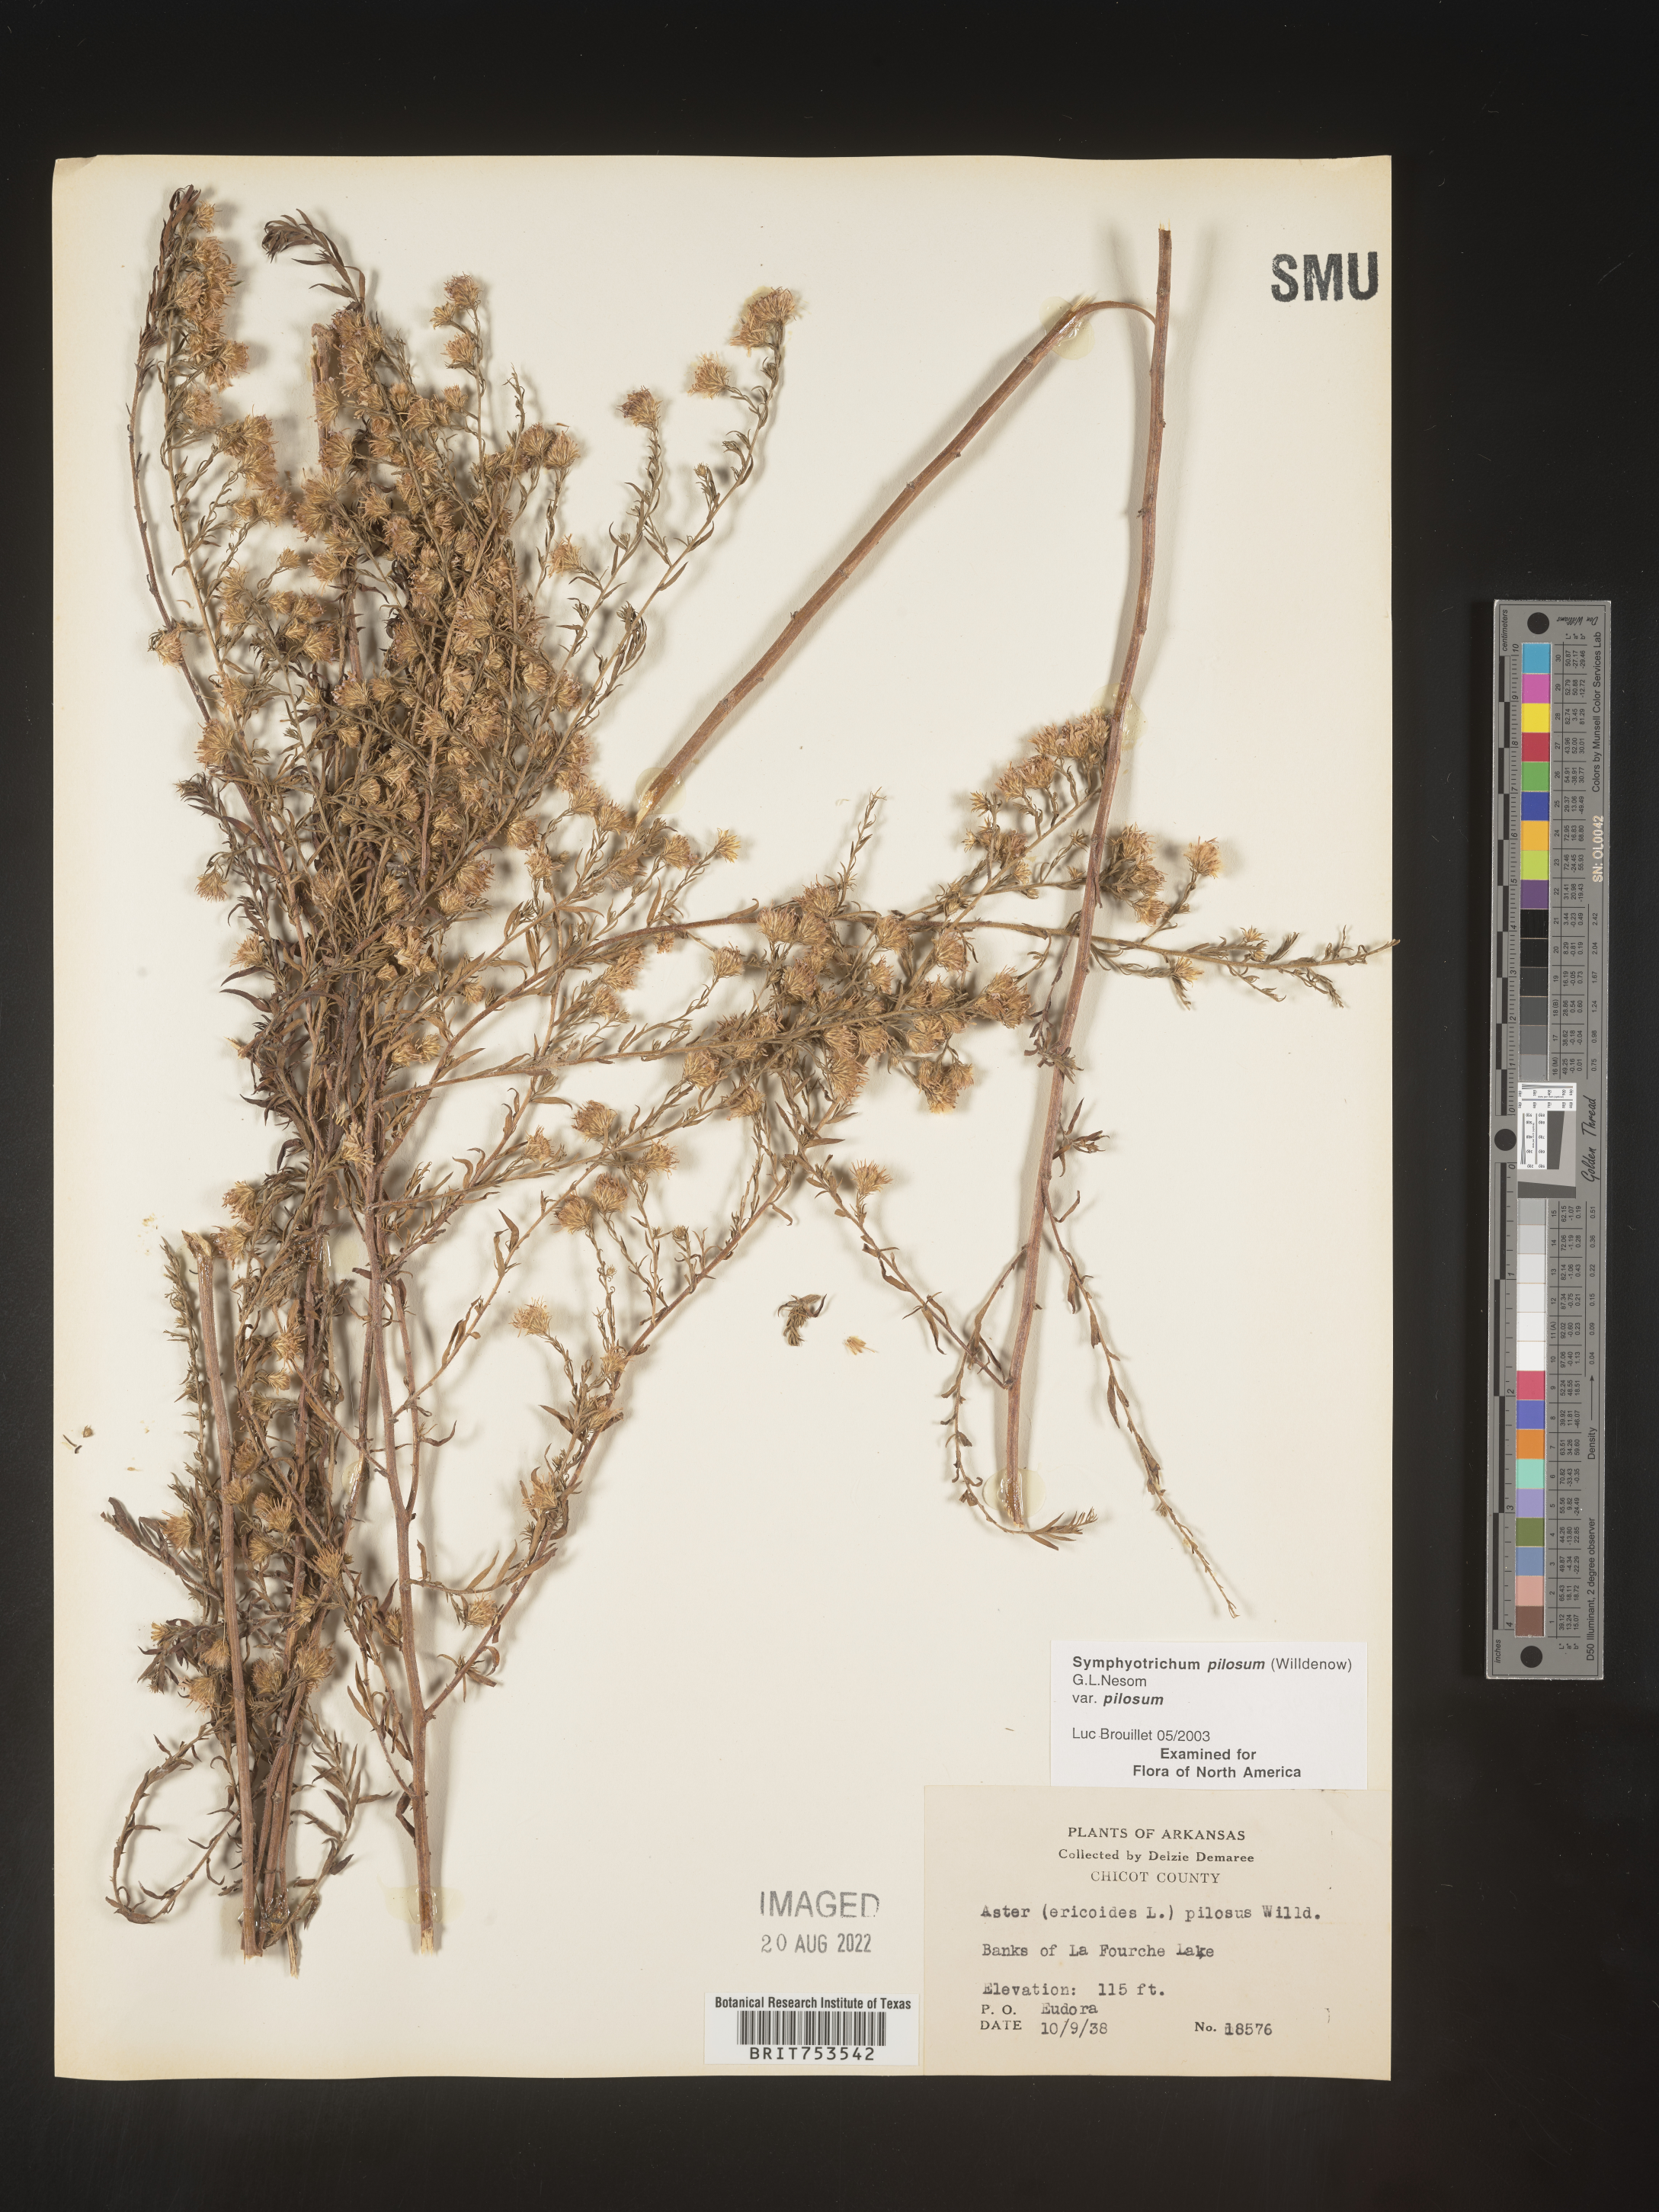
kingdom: Plantae
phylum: Tracheophyta
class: Magnoliopsida
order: Asterales
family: Asteraceae
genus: Symphyotrichum
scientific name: Symphyotrichum pilosum
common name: Awl aster
